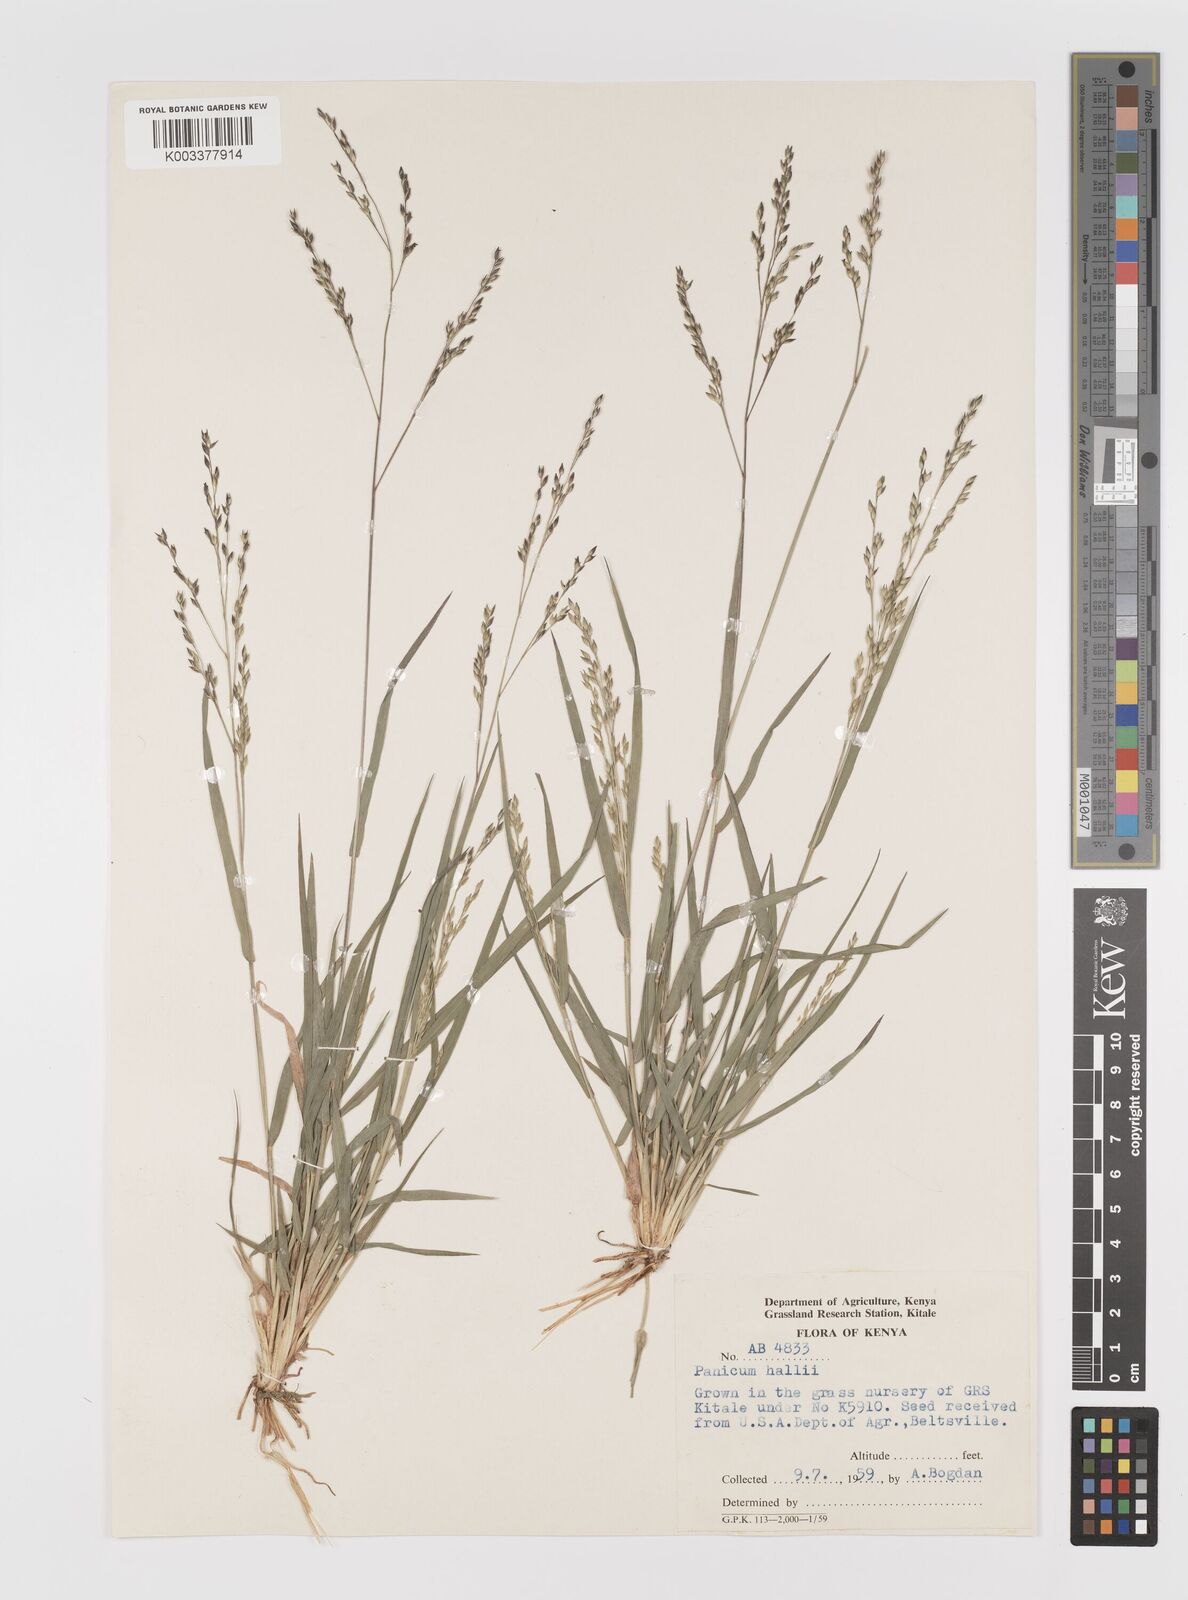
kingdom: Plantae
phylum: Tracheophyta
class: Liliopsida
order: Poales
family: Poaceae
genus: Panicum
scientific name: Panicum hallii
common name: Hall's witchgrass
